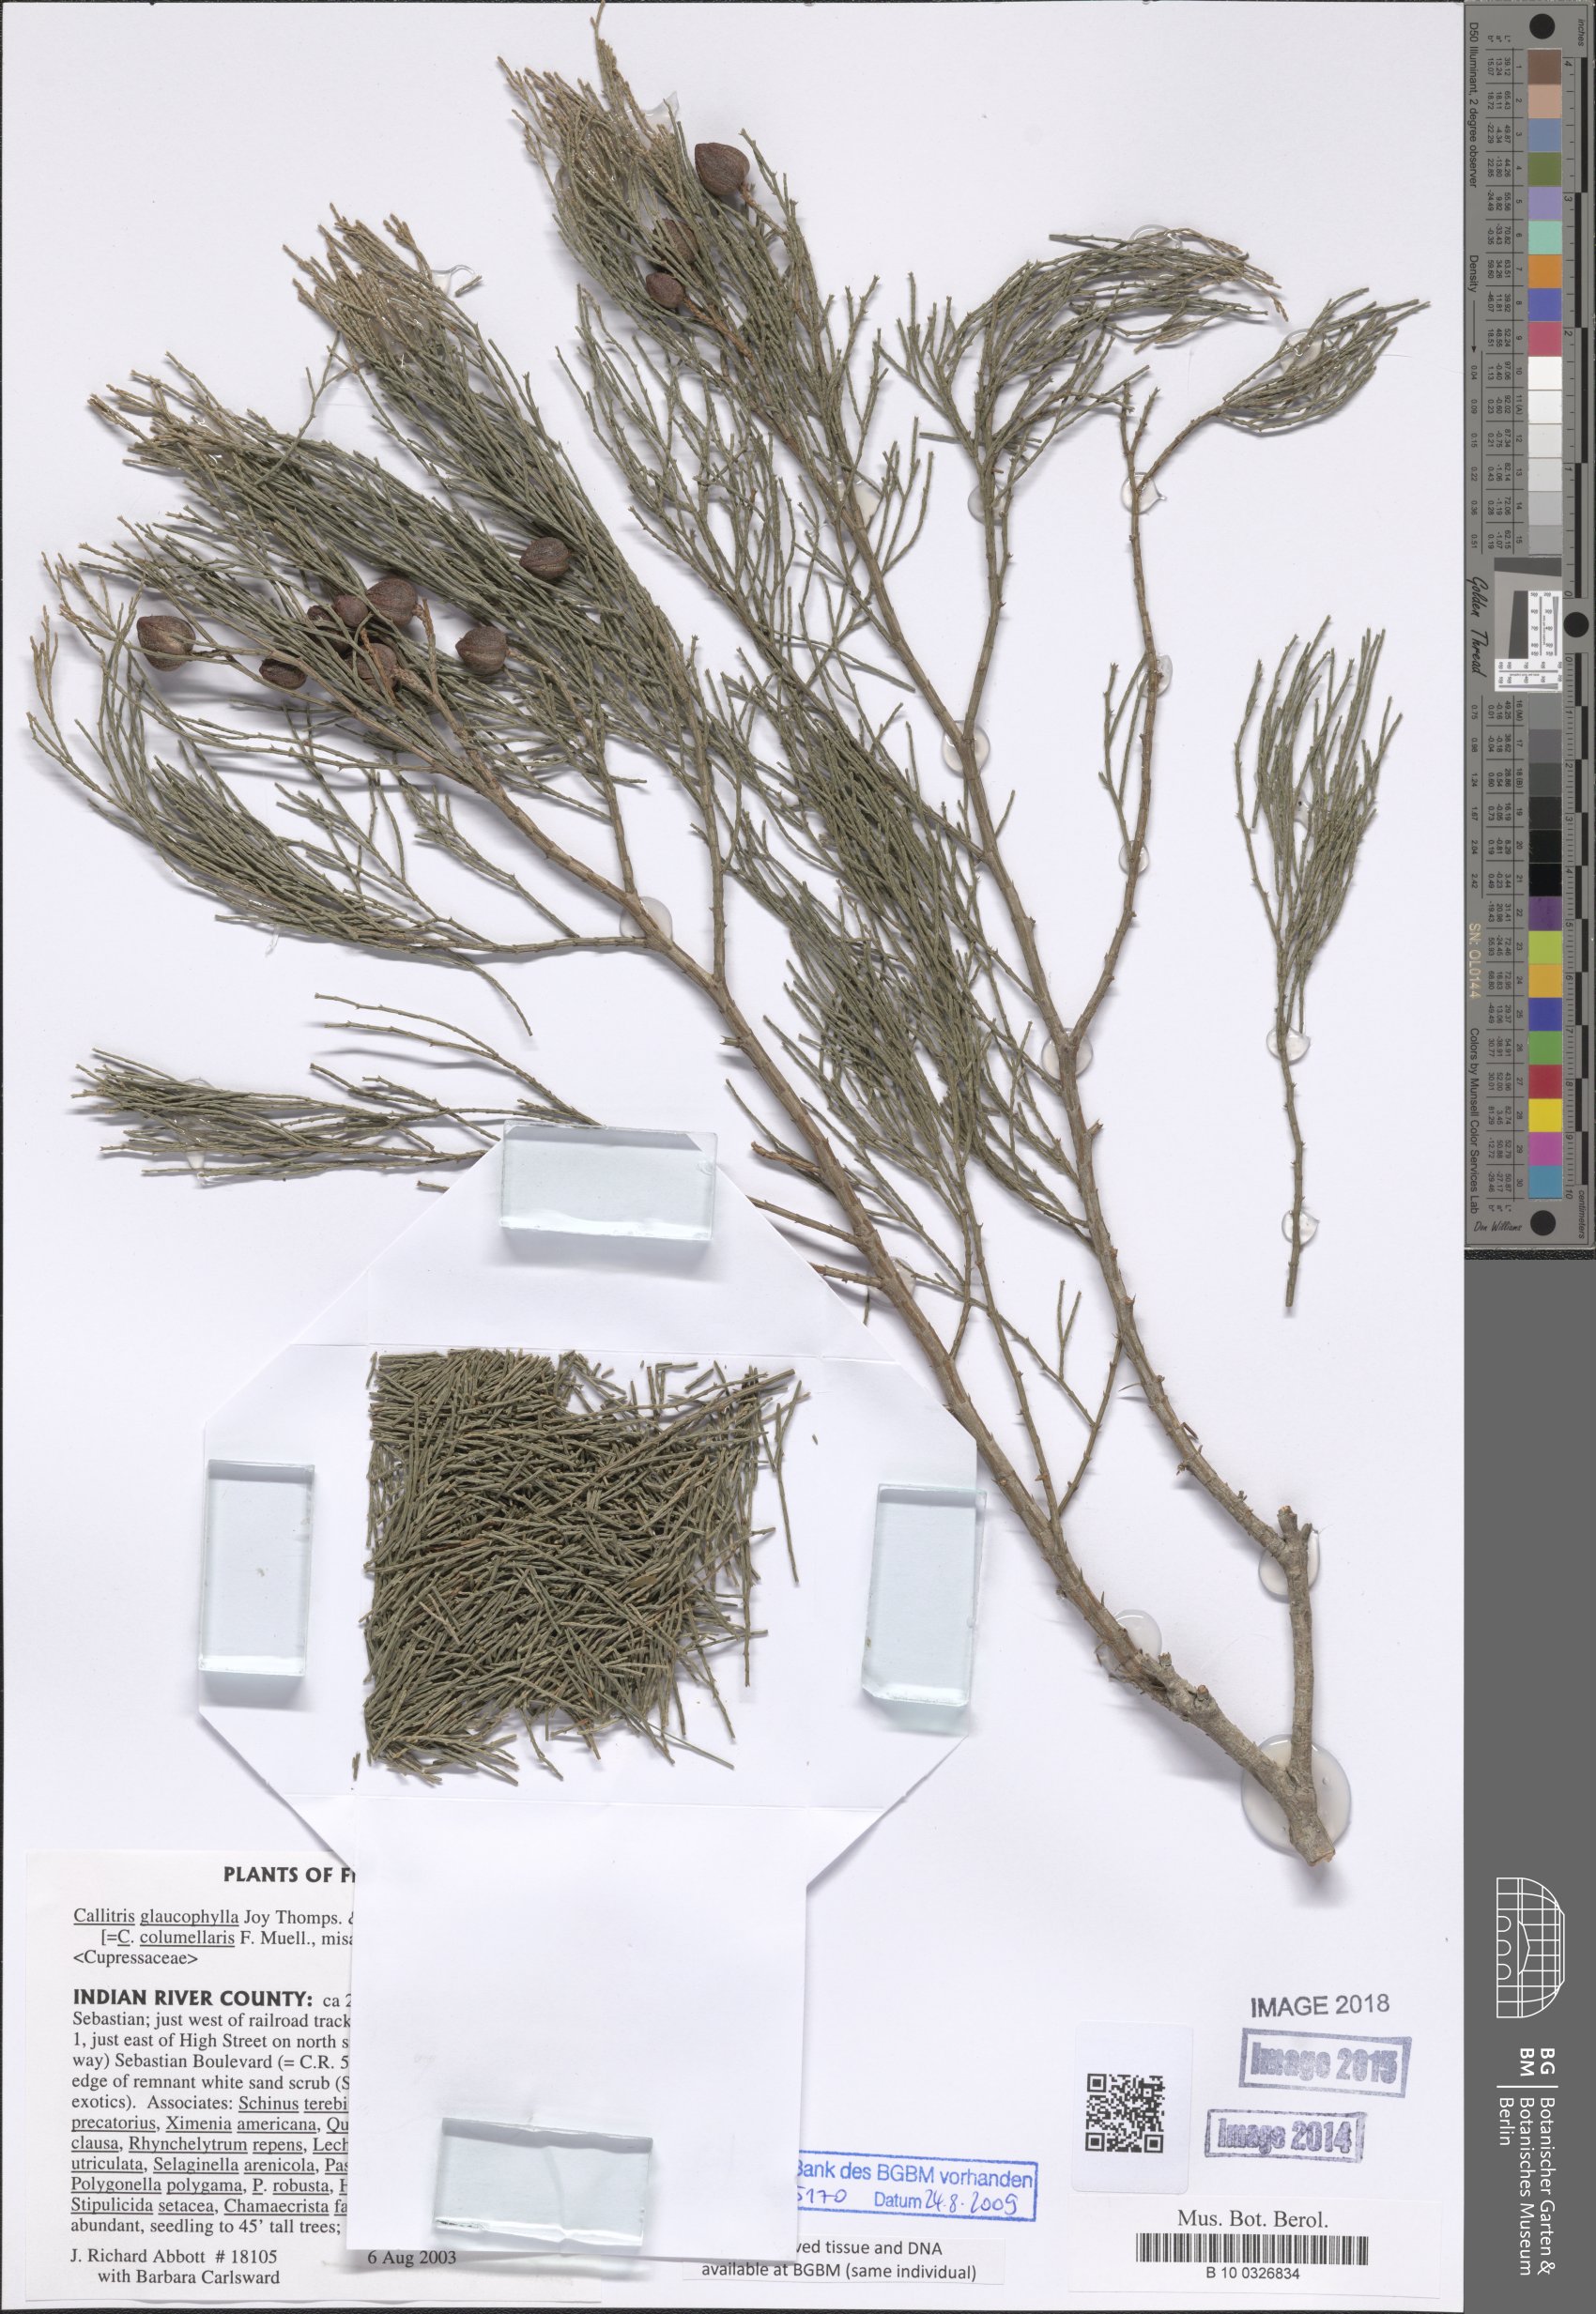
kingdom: Plantae
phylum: Tracheophyta
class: Pinopsida
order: Pinales
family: Cupressaceae
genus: Callitris
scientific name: Callitris columellaris
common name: White cypress-pine
